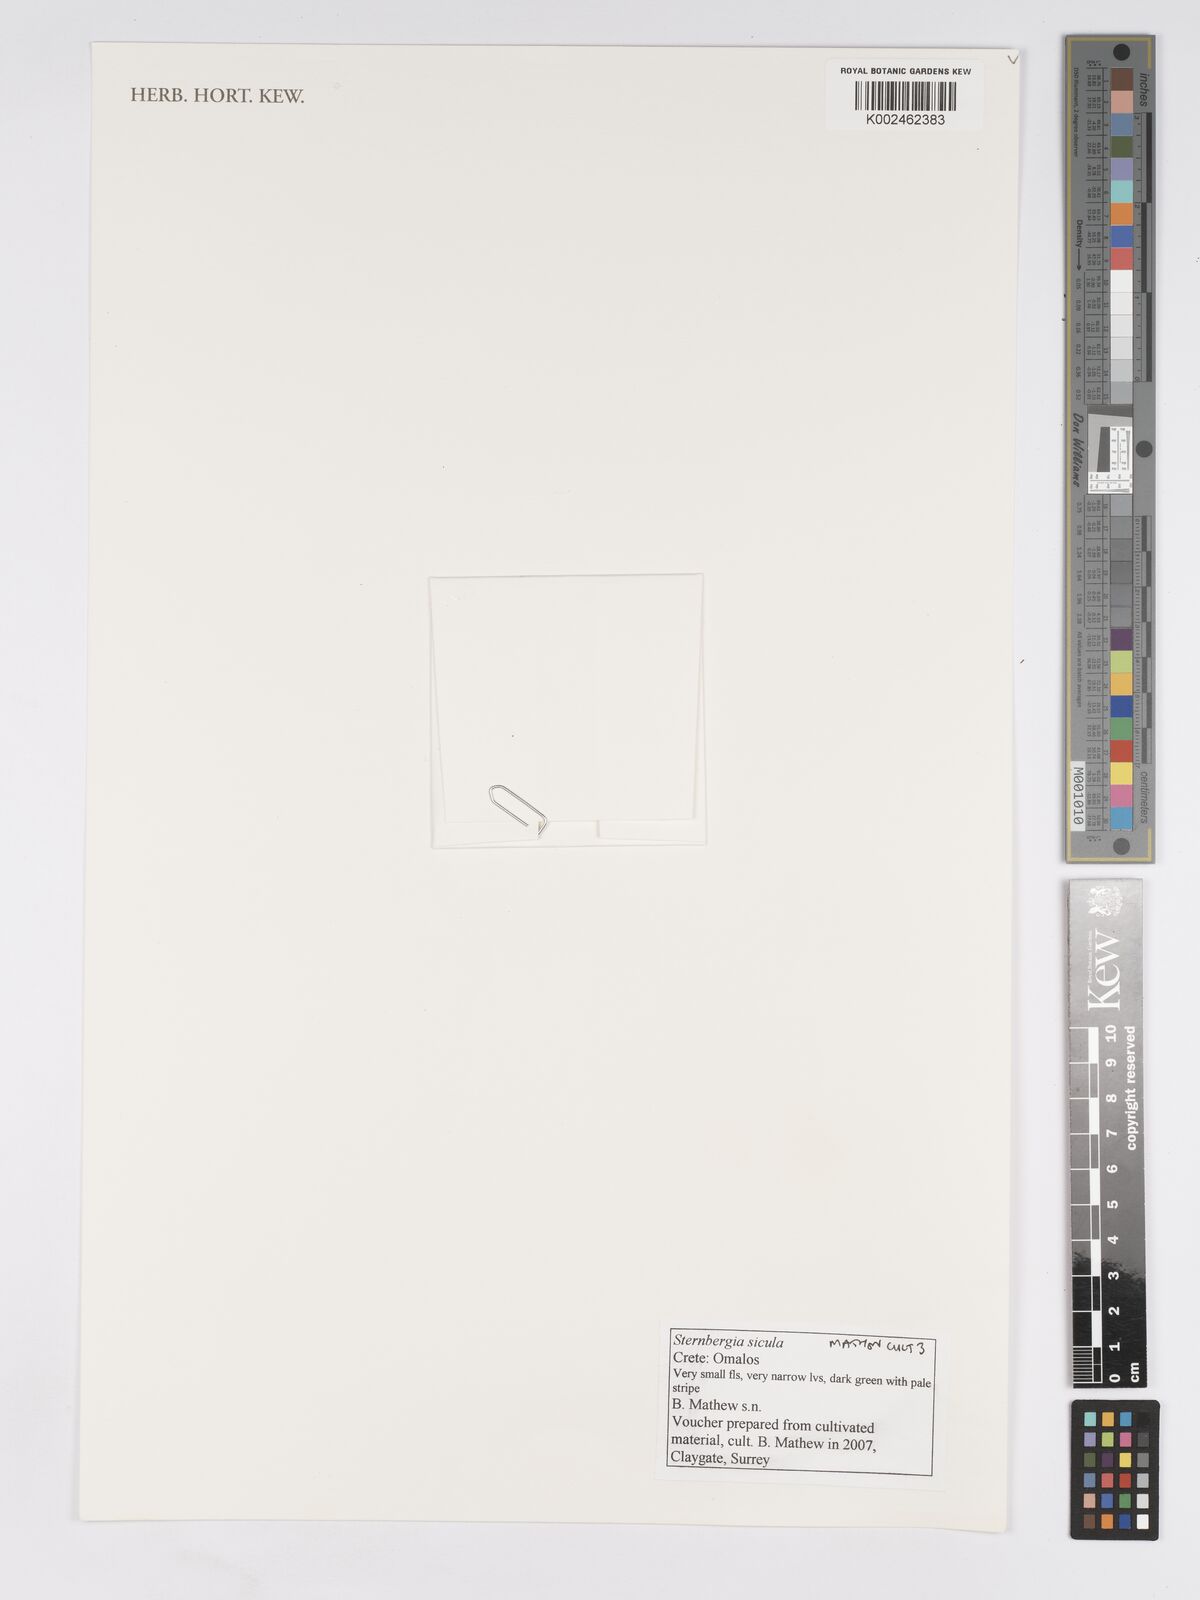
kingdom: Plantae
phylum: Tracheophyta
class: Liliopsida
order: Asparagales
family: Amaryllidaceae
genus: Sternbergia
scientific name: Sternbergia lutea
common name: Winter daffodil
